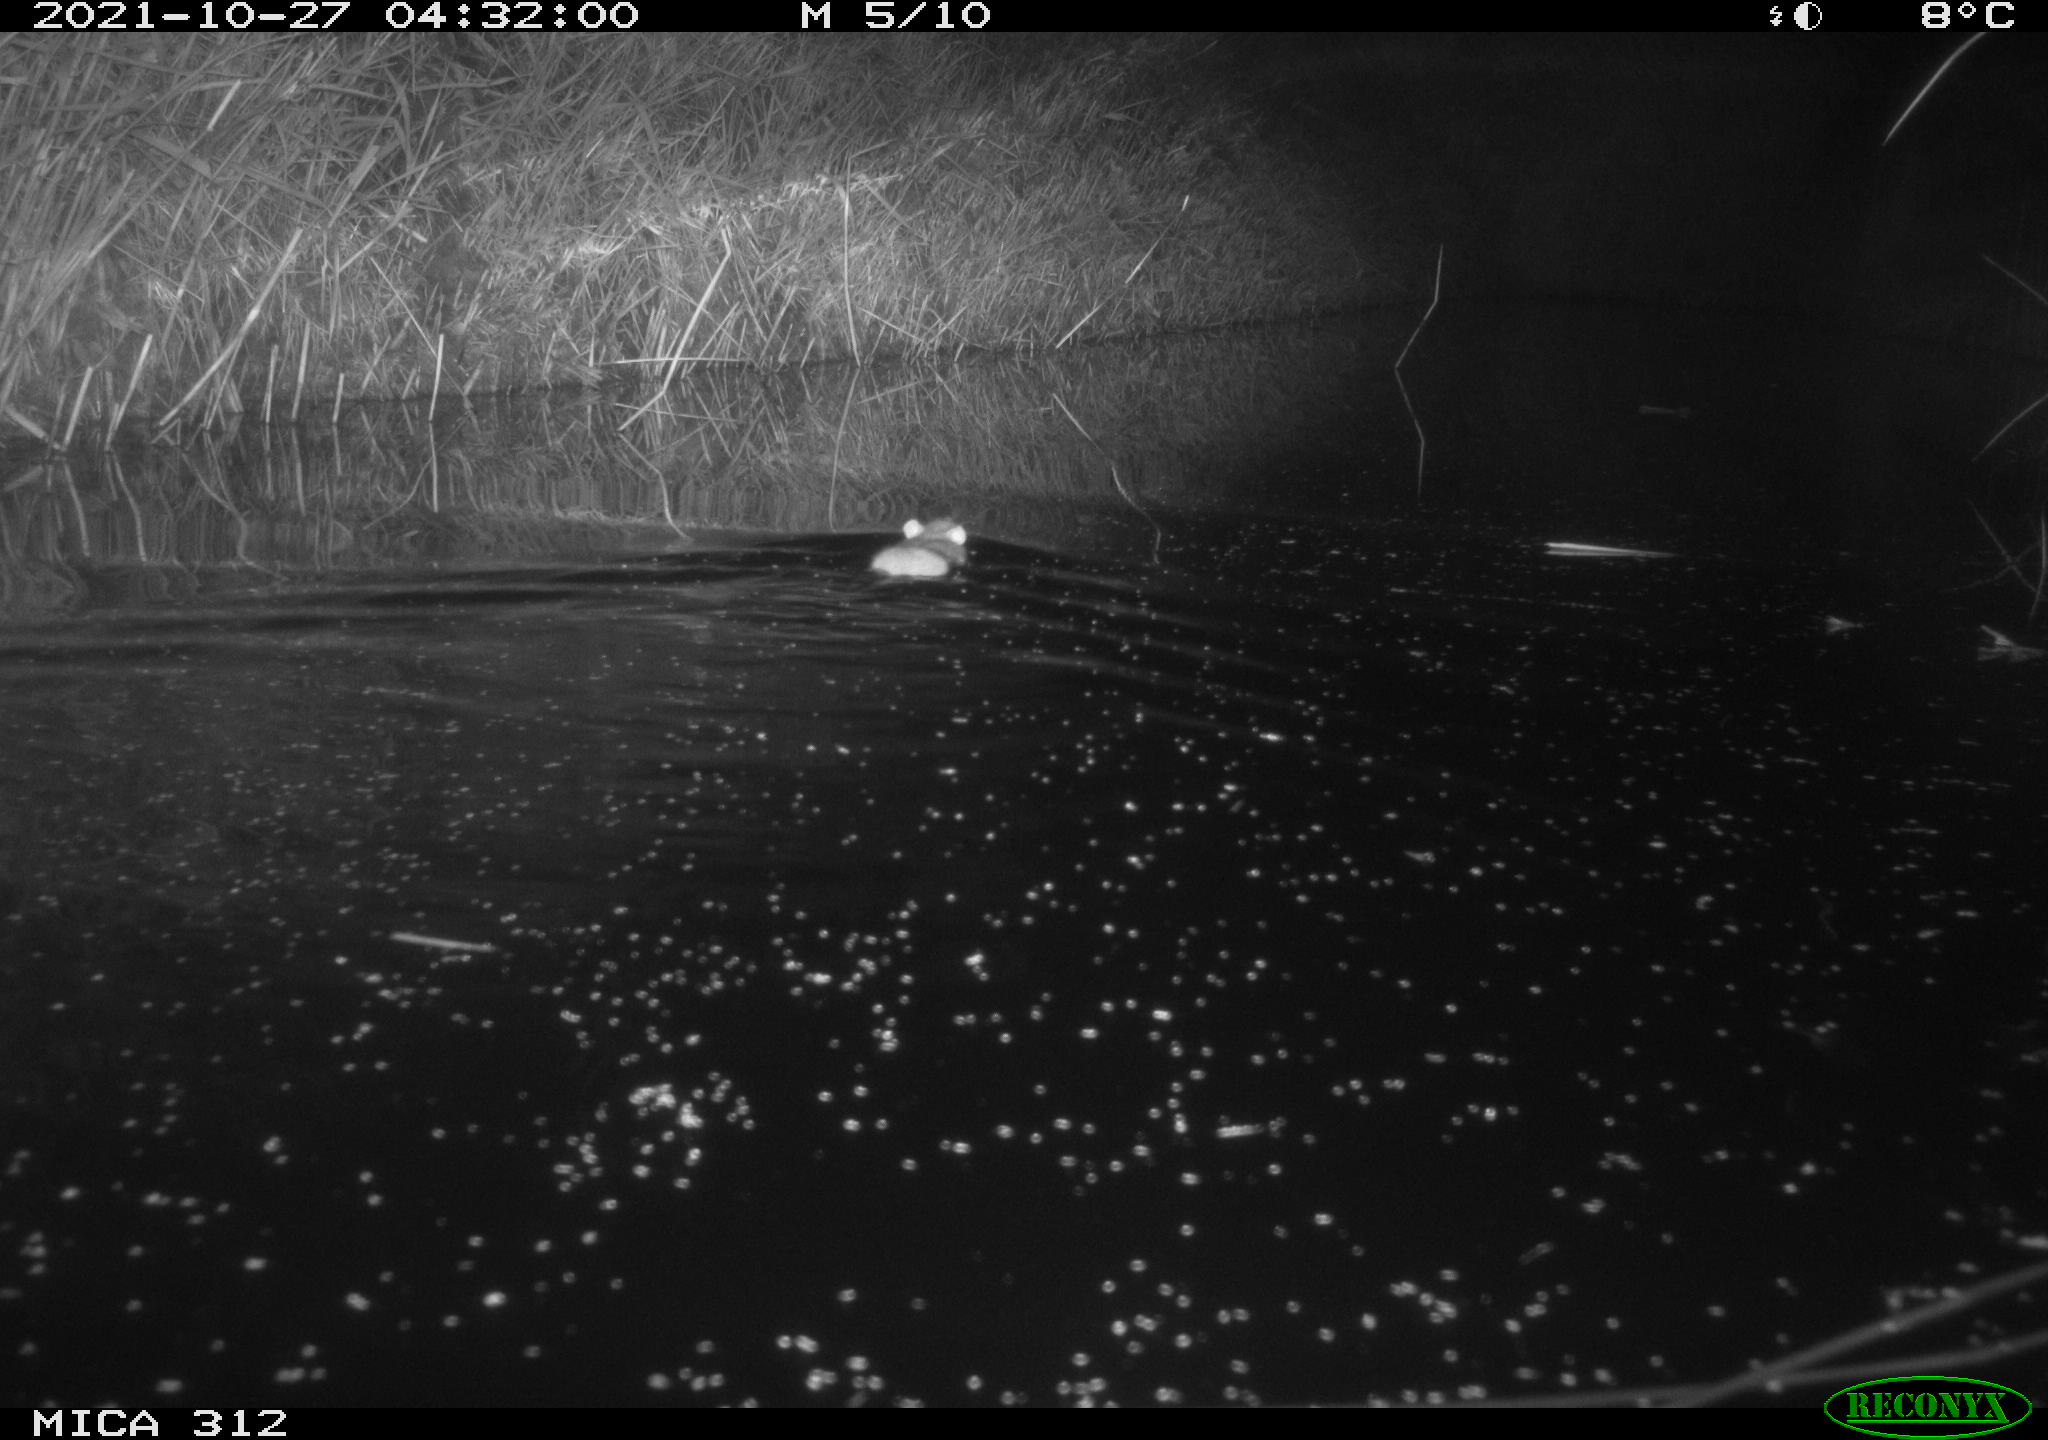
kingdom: Animalia
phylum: Chordata
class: Mammalia
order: Rodentia
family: Muridae
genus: Rattus
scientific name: Rattus norvegicus
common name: Brown rat
